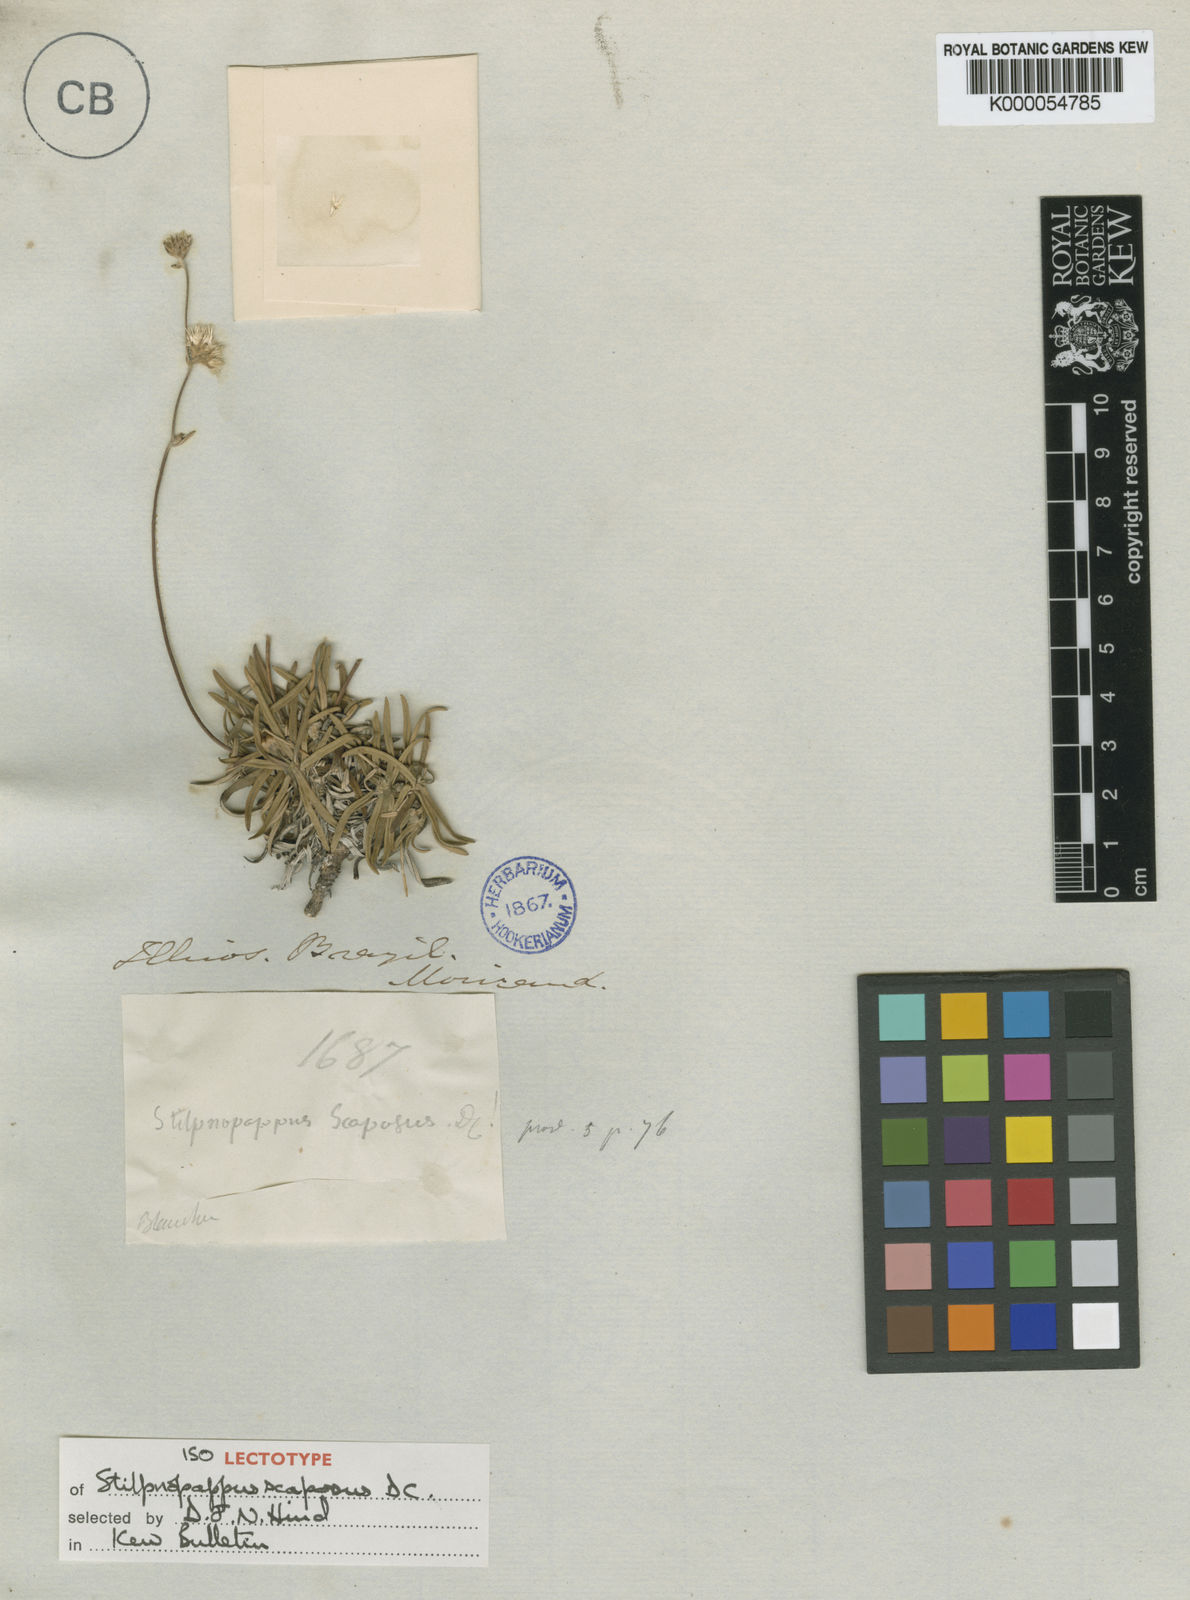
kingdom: Plantae
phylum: Tracheophyta
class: Magnoliopsida
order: Asterales
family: Asteraceae
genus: Stilpnopappus
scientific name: Stilpnopappus scaposus
